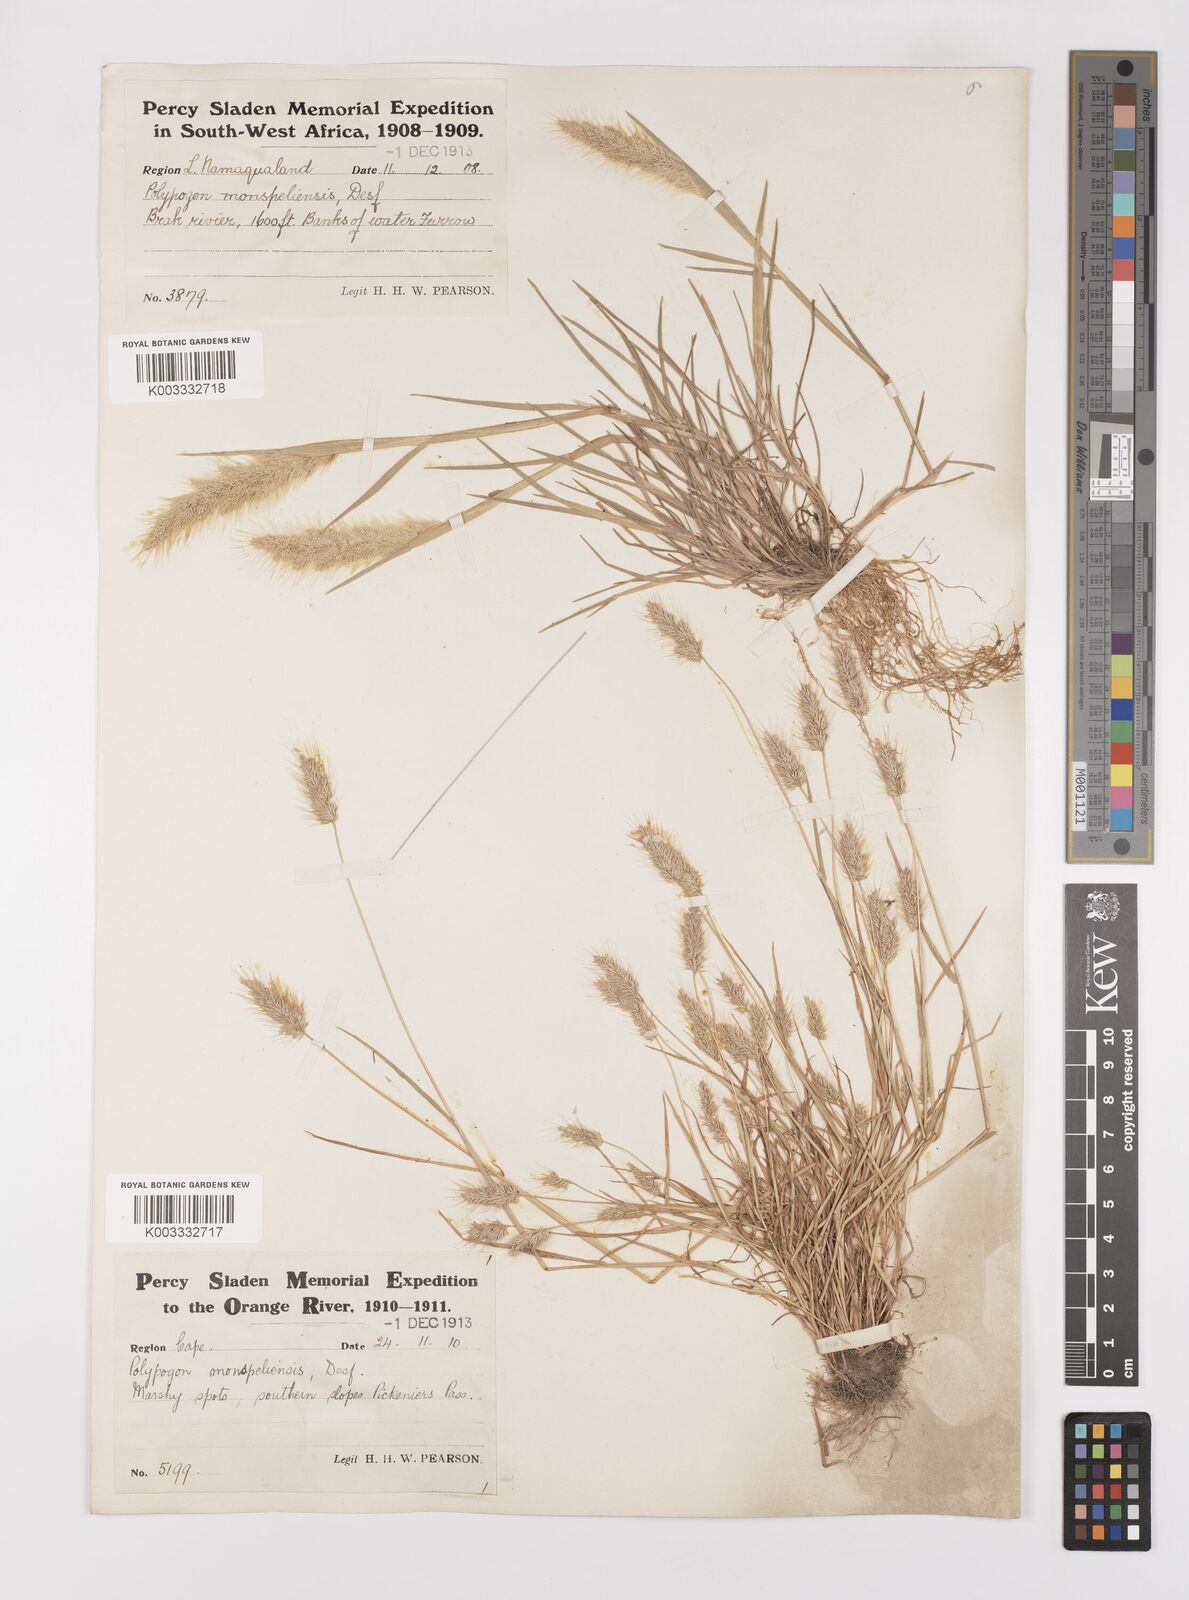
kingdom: Plantae
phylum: Tracheophyta
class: Liliopsida
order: Poales
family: Poaceae
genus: Polypogon
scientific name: Polypogon monspeliensis
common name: Annual rabbitsfoot grass
